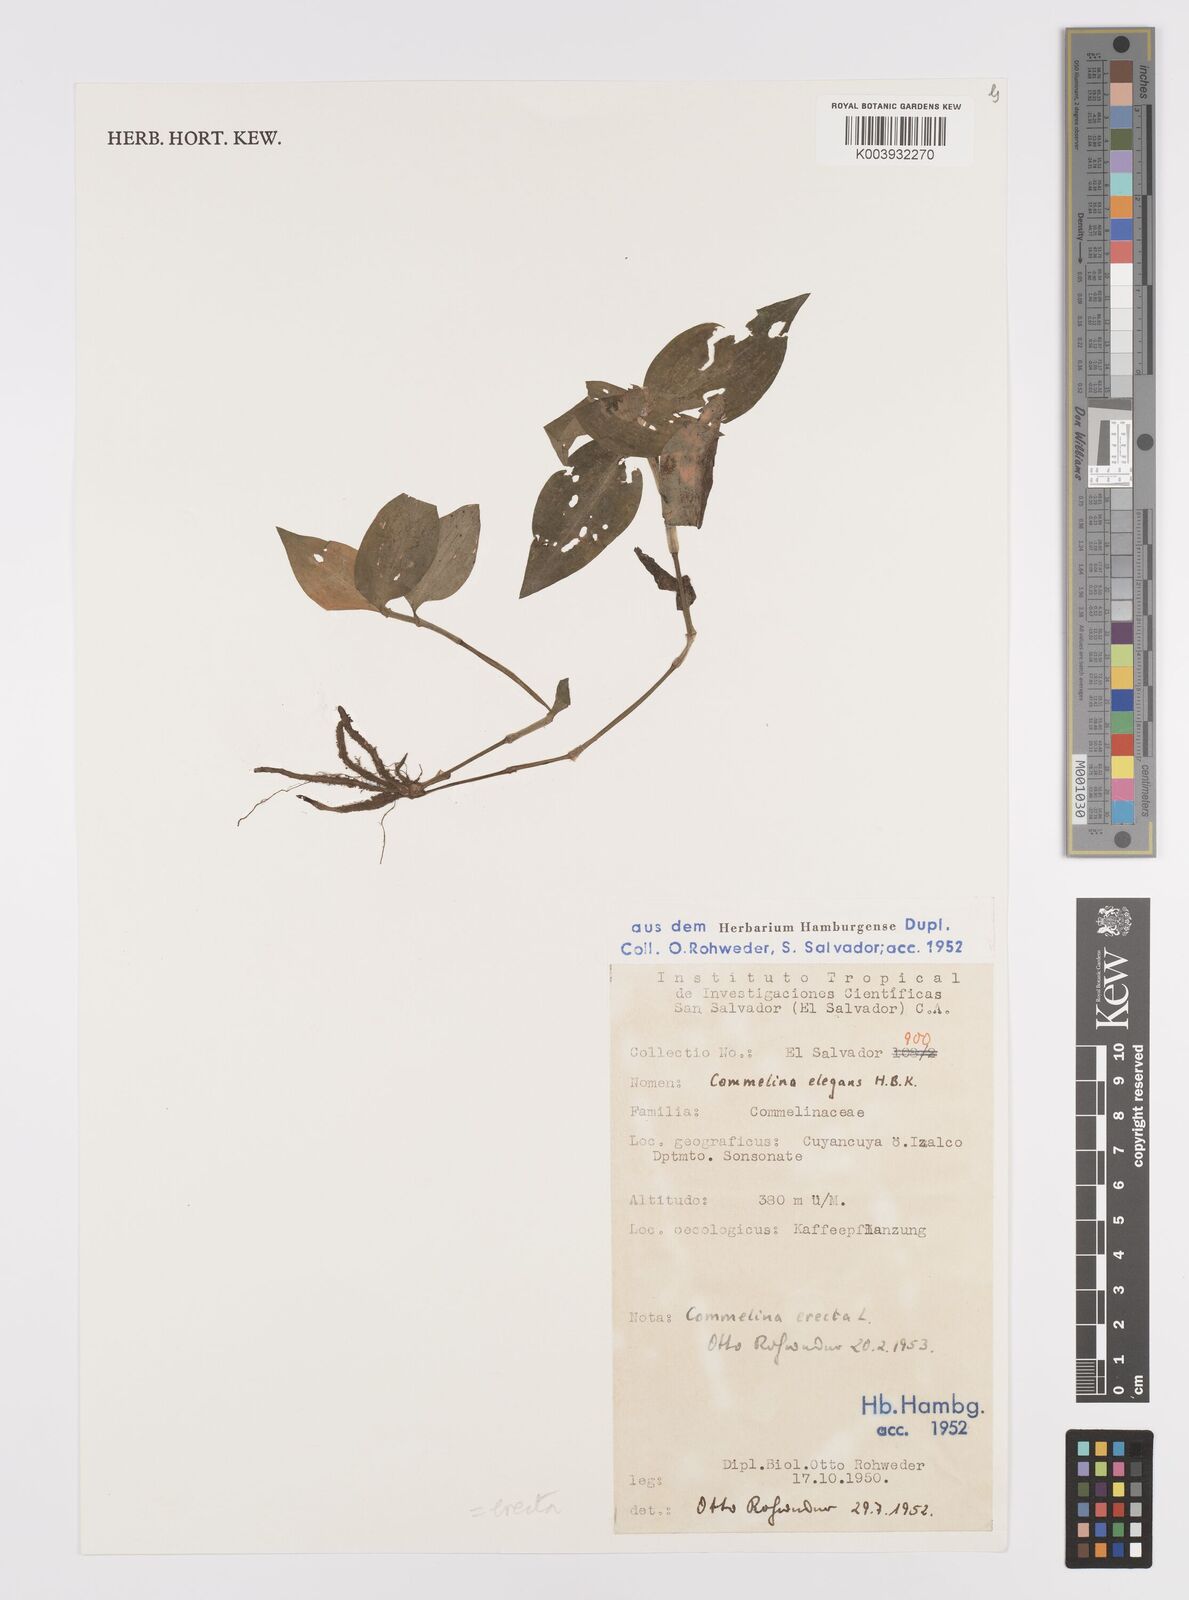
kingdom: Plantae
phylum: Tracheophyta
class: Liliopsida
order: Commelinales
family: Commelinaceae
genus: Commelina
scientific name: Commelina erecta
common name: Blousel blommetjie
